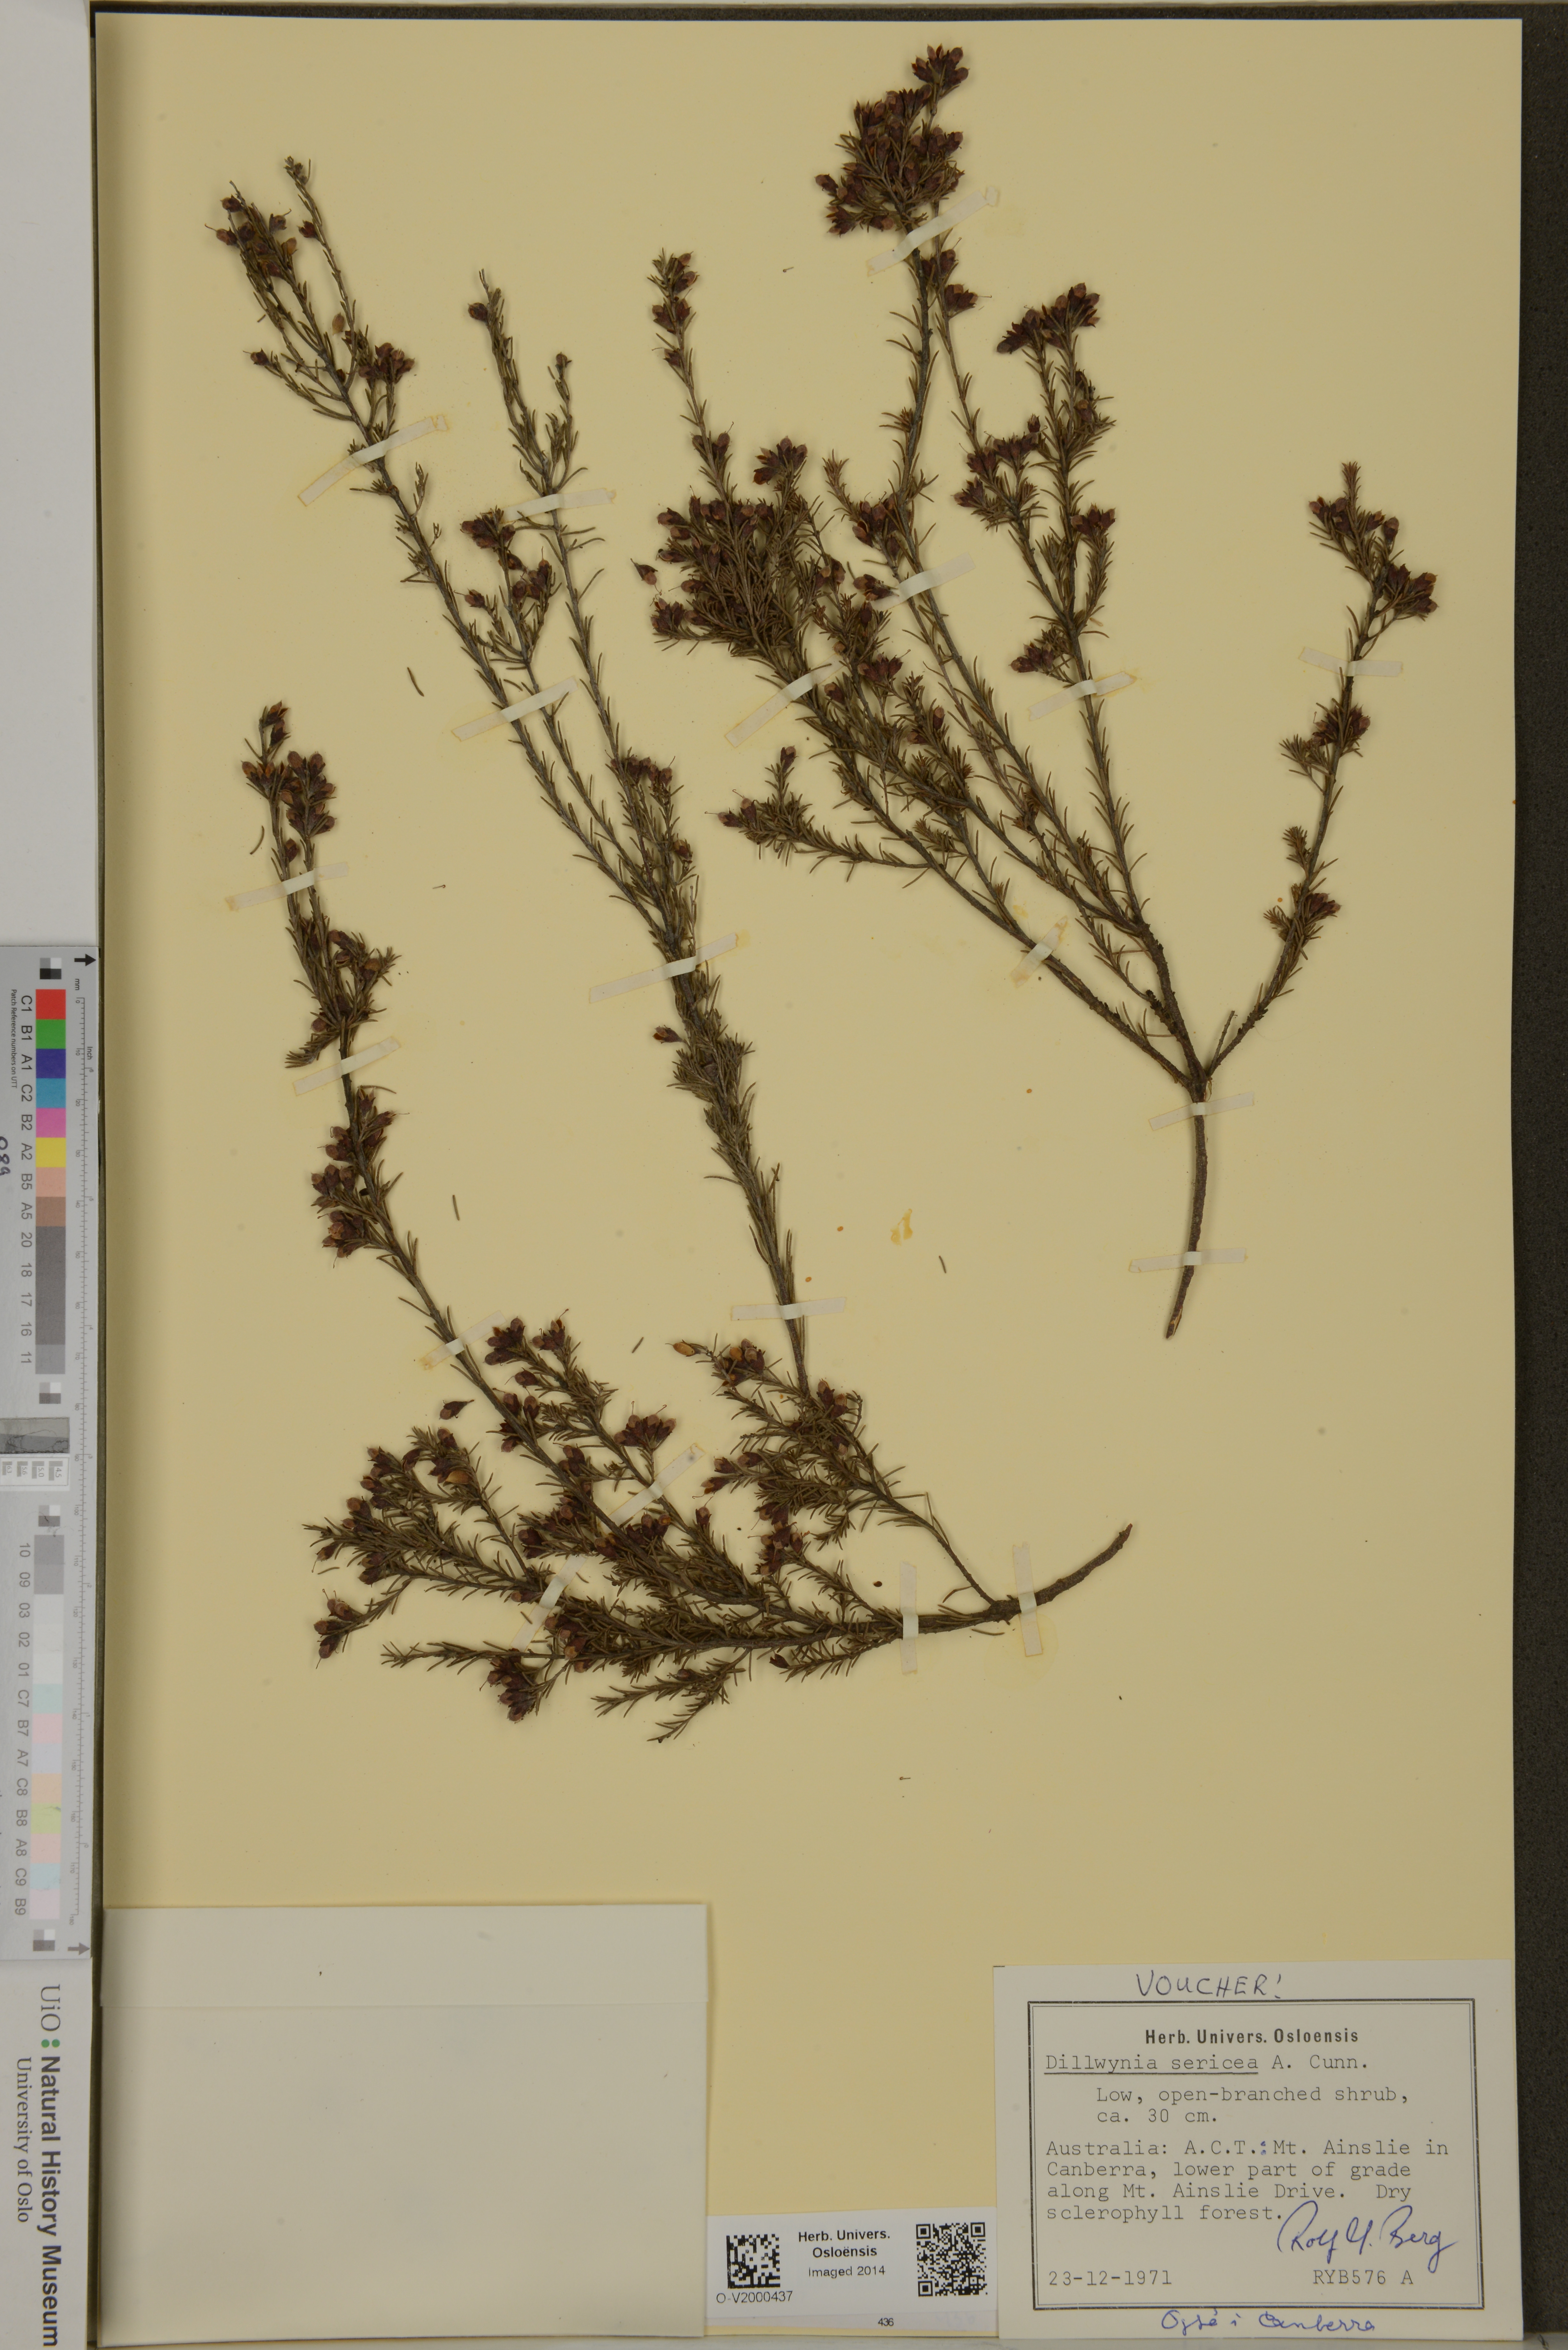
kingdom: Plantae
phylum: Tracheophyta
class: Magnoliopsida
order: Fabales
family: Fabaceae
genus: Dillwynia
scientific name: Dillwynia sericea
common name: Showy parrot-pea
